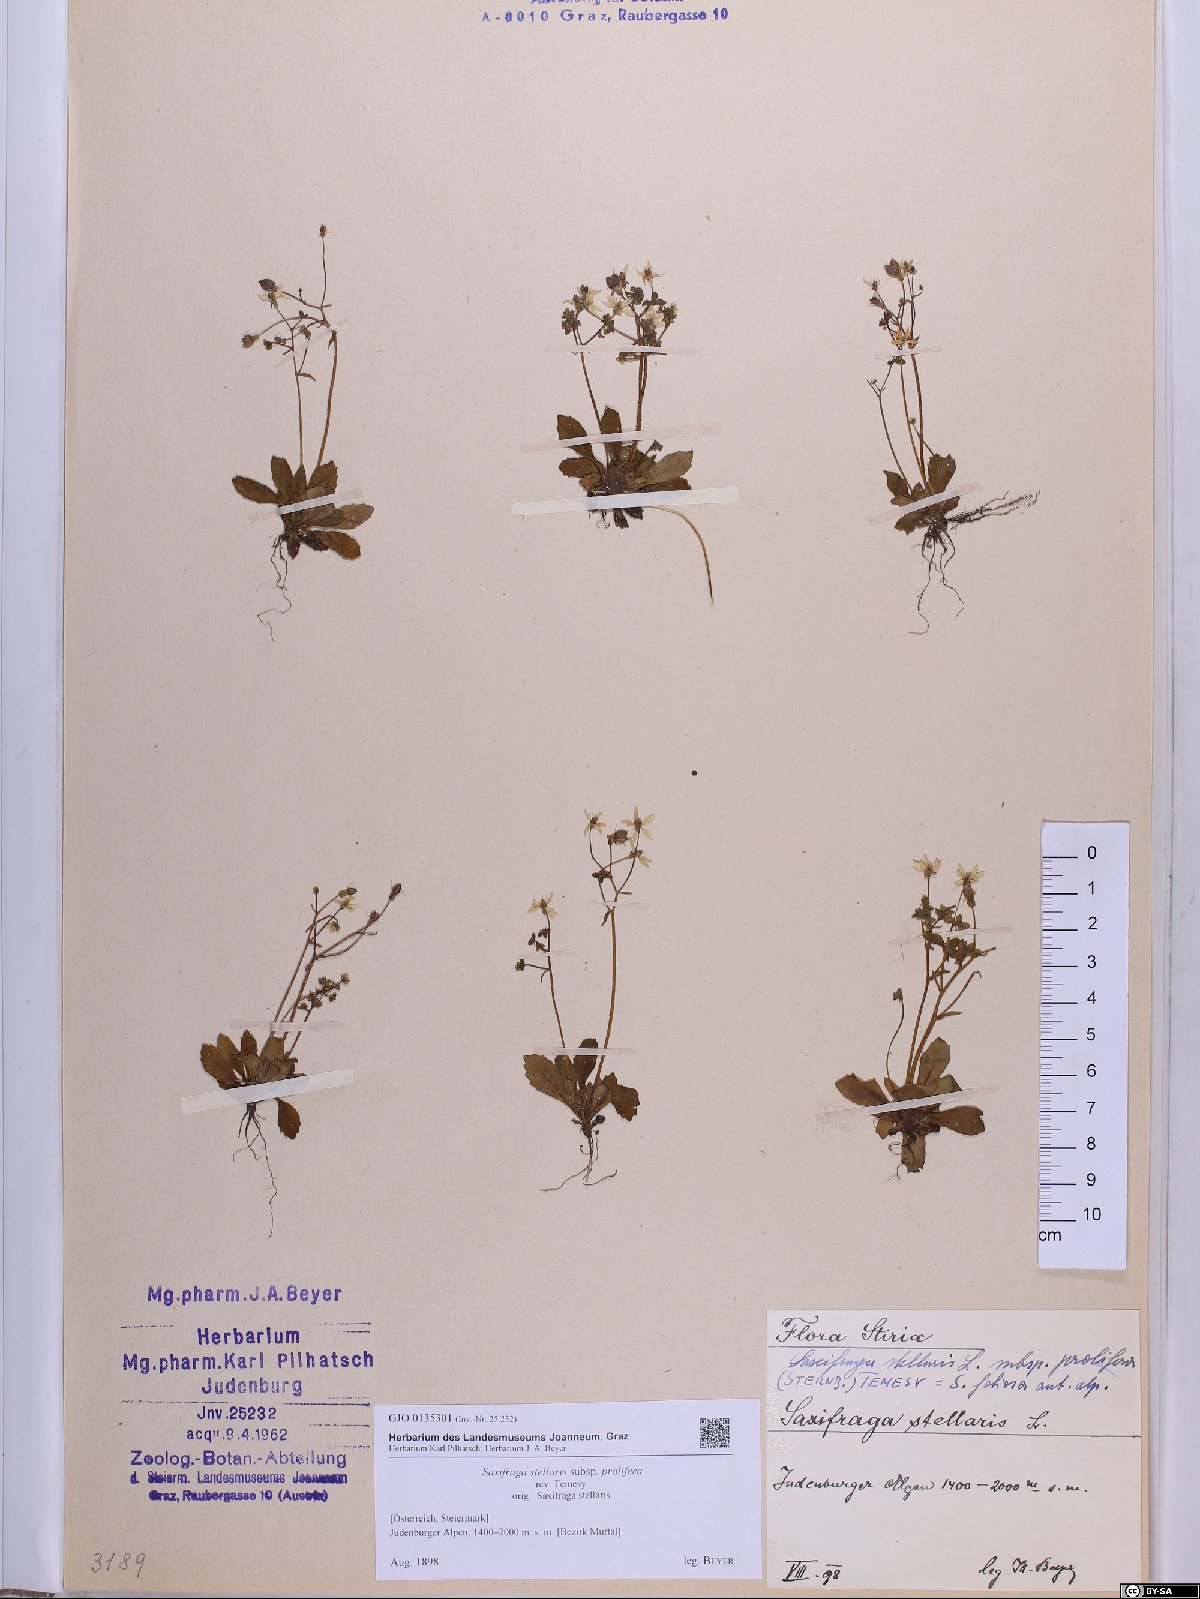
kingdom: Plantae
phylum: Tracheophyta
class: Magnoliopsida
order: Saxifragales
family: Saxifragaceae
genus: Micranthes
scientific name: Micranthes stellaris
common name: Starry saxifrage
